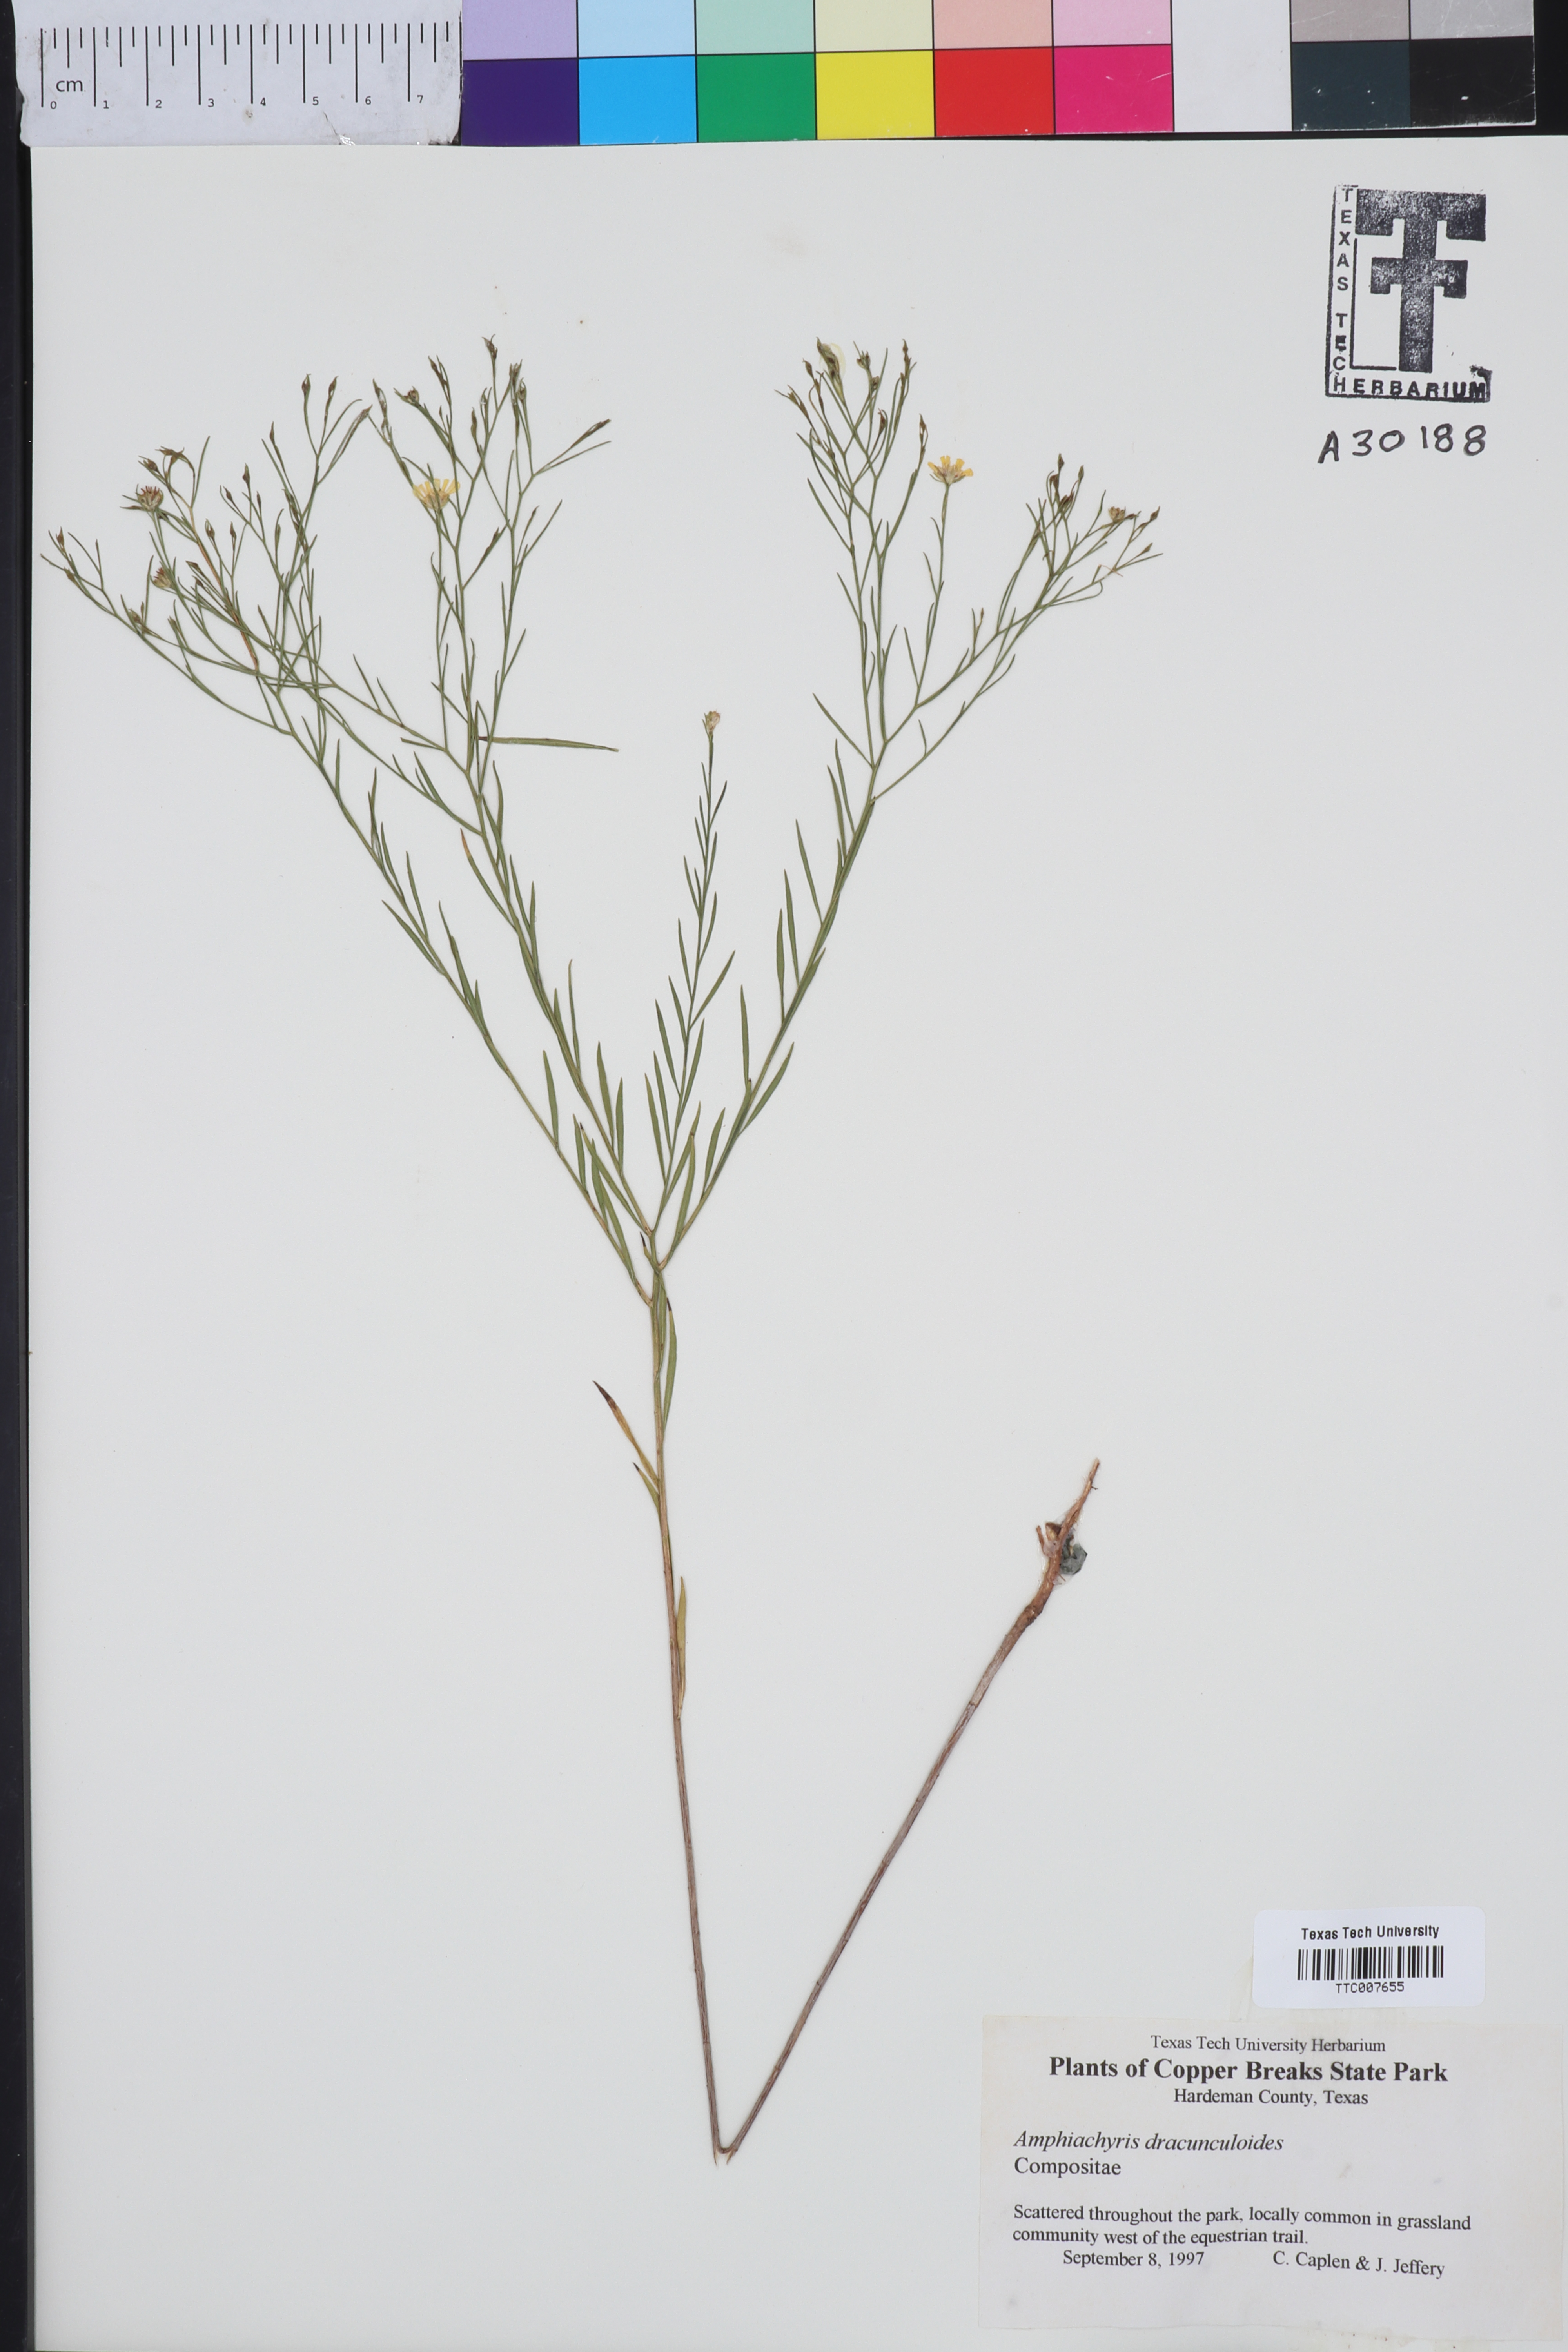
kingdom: Plantae
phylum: Tracheophyta
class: Magnoliopsida
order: Asterales
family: Asteraceae
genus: Amphiachyris
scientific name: Amphiachyris dracunculoides
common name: Broomweed
